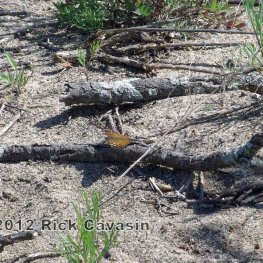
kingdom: Animalia
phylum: Arthropoda
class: Insecta
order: Lepidoptera
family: Nymphalidae
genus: Asterocampa
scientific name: Asterocampa celtis
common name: Hackberry Emperor
